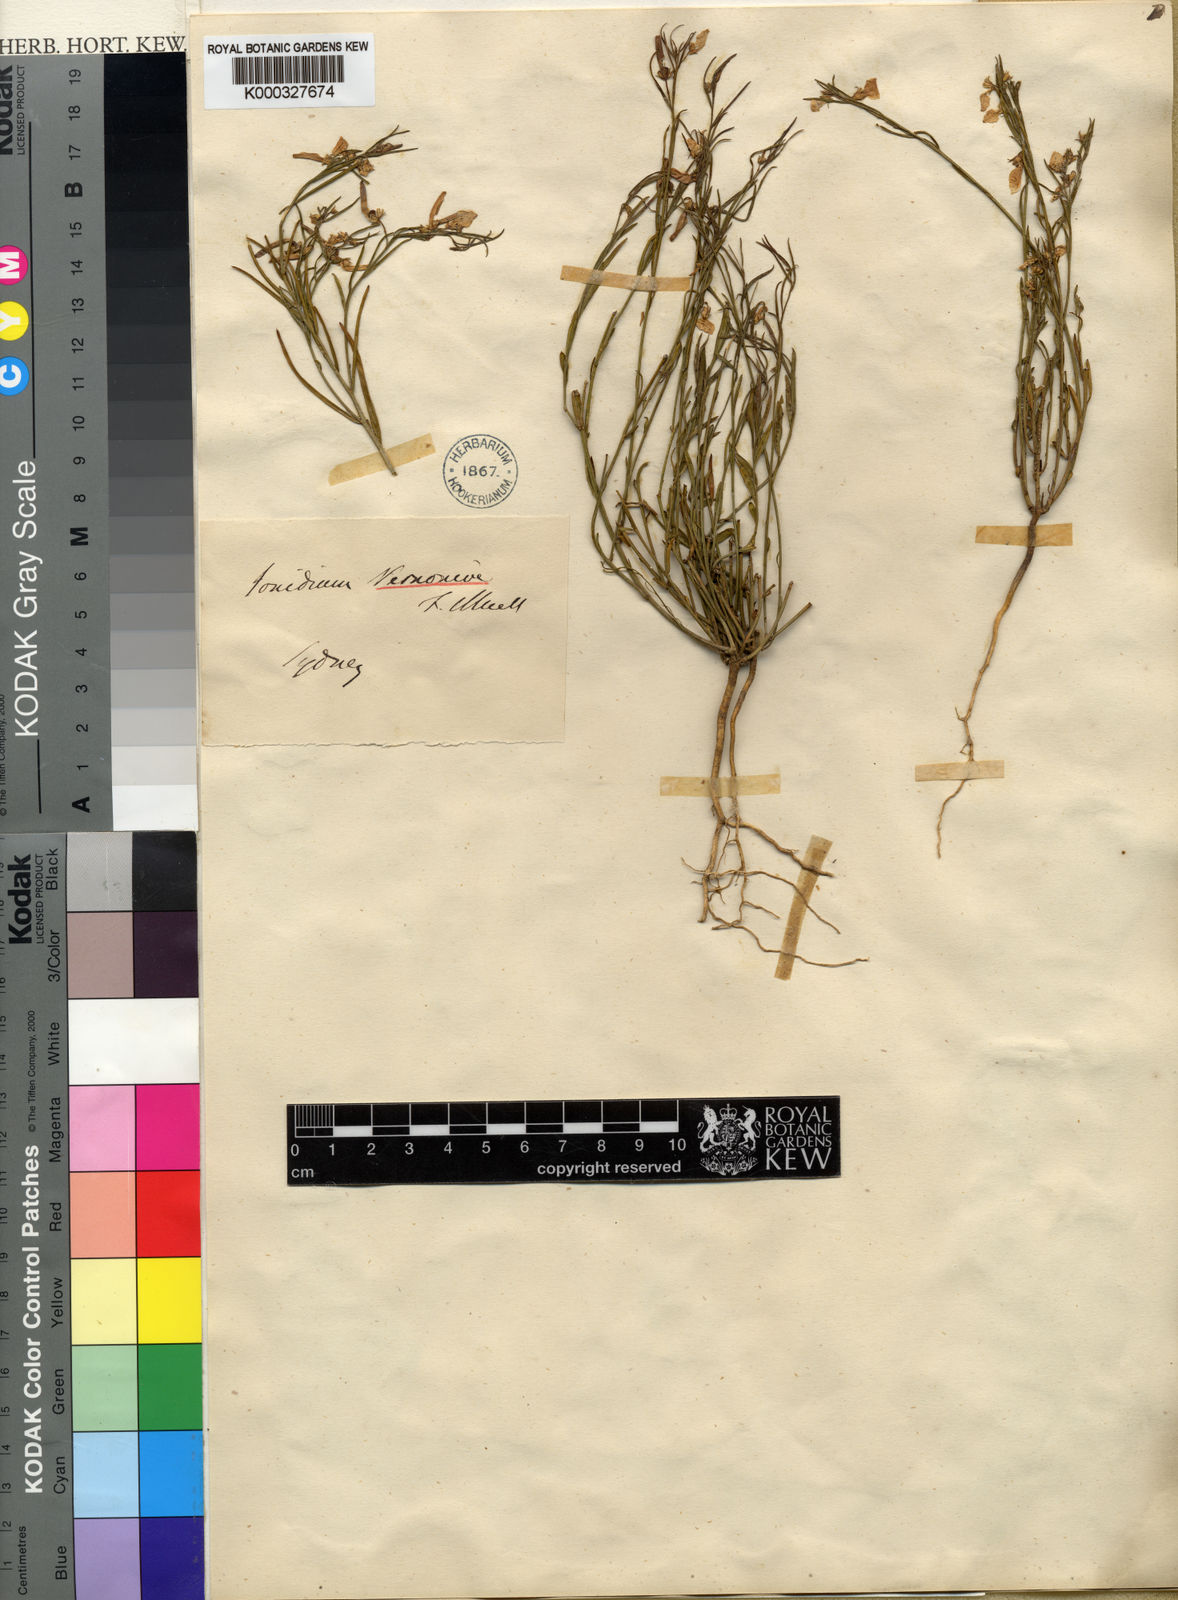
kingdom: Plantae
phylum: Tracheophyta
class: Magnoliopsida
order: Malpighiales
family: Violaceae
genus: Pigea
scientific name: Pigea vernonii
